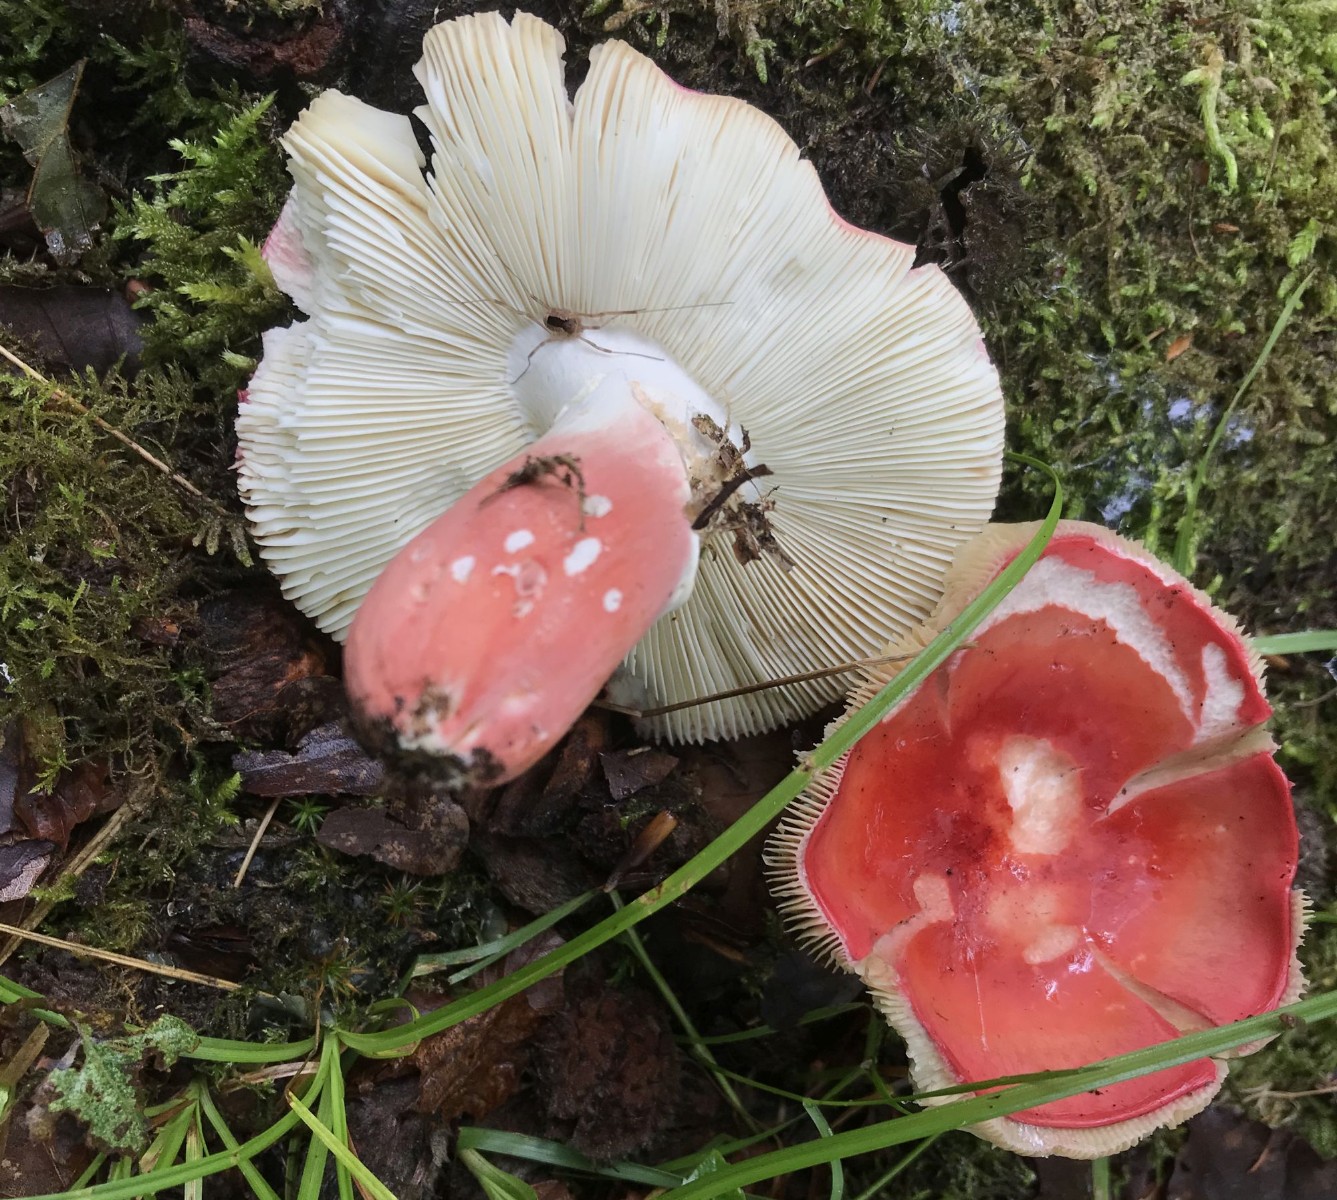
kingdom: Fungi
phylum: Basidiomycota
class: Agaricomycetes
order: Russulales
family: Russulaceae
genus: Russula
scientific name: Russula rosea
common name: fastkødet skørhat
